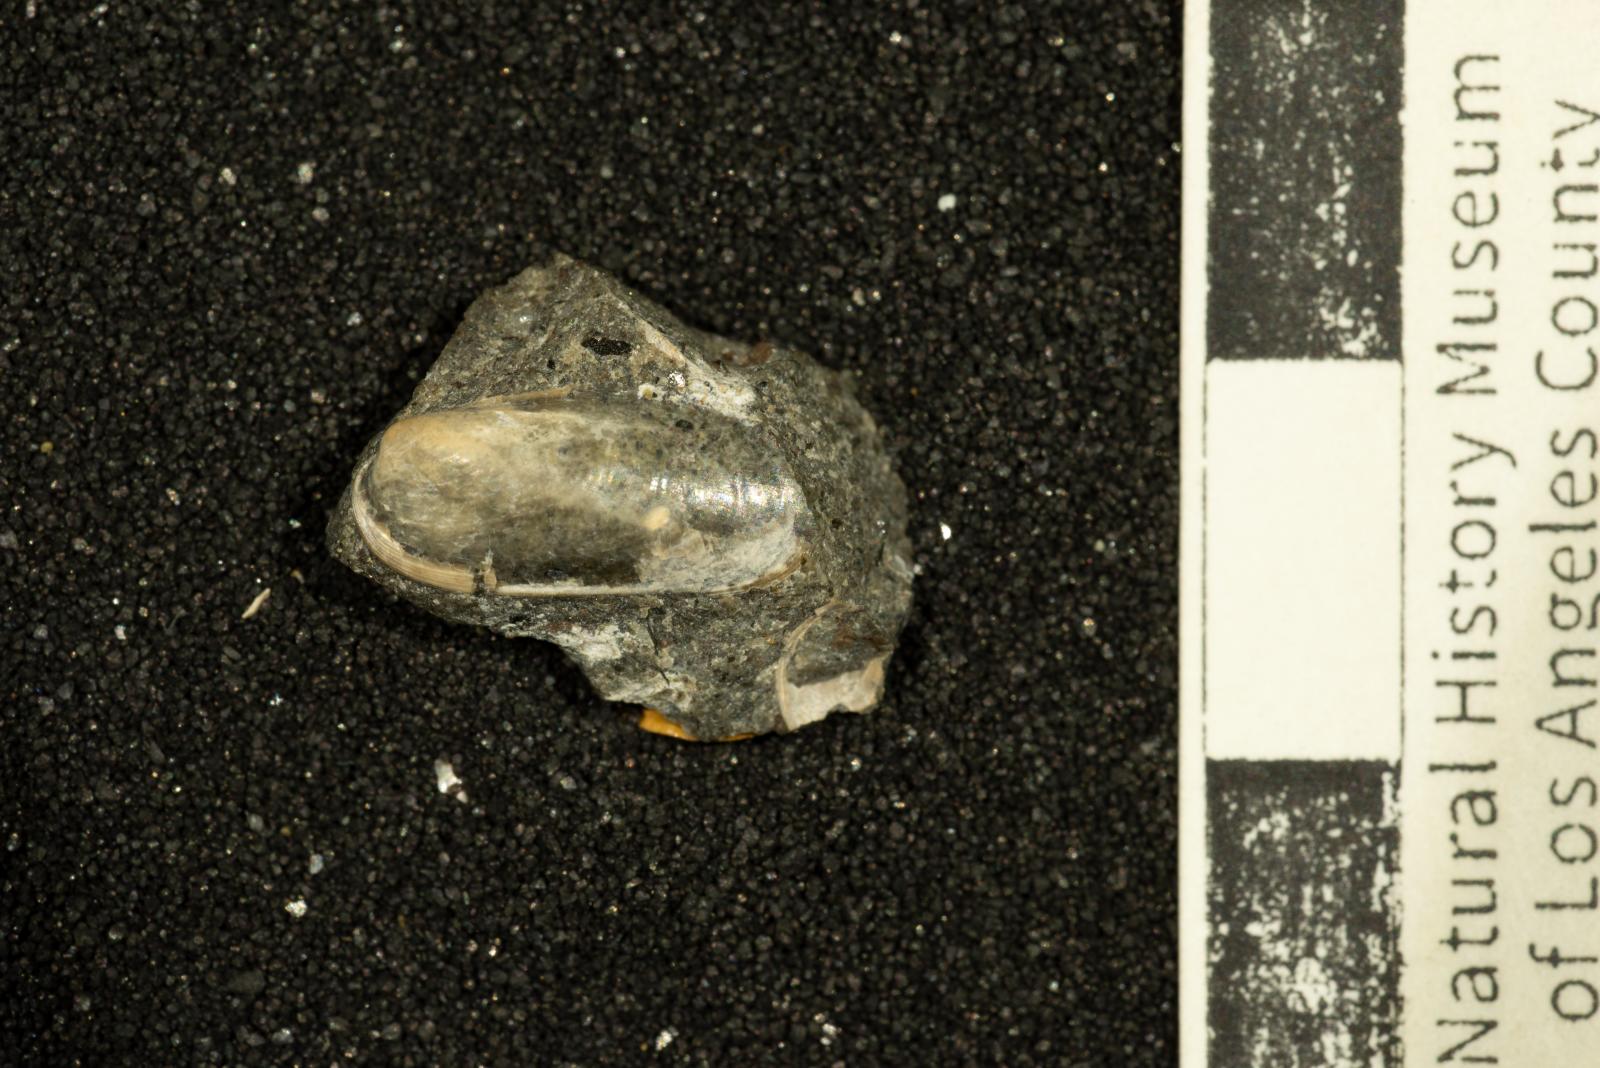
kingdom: Animalia
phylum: Mollusca
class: Bivalvia
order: Mytilida
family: Mytilidae
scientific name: Mytilidae
